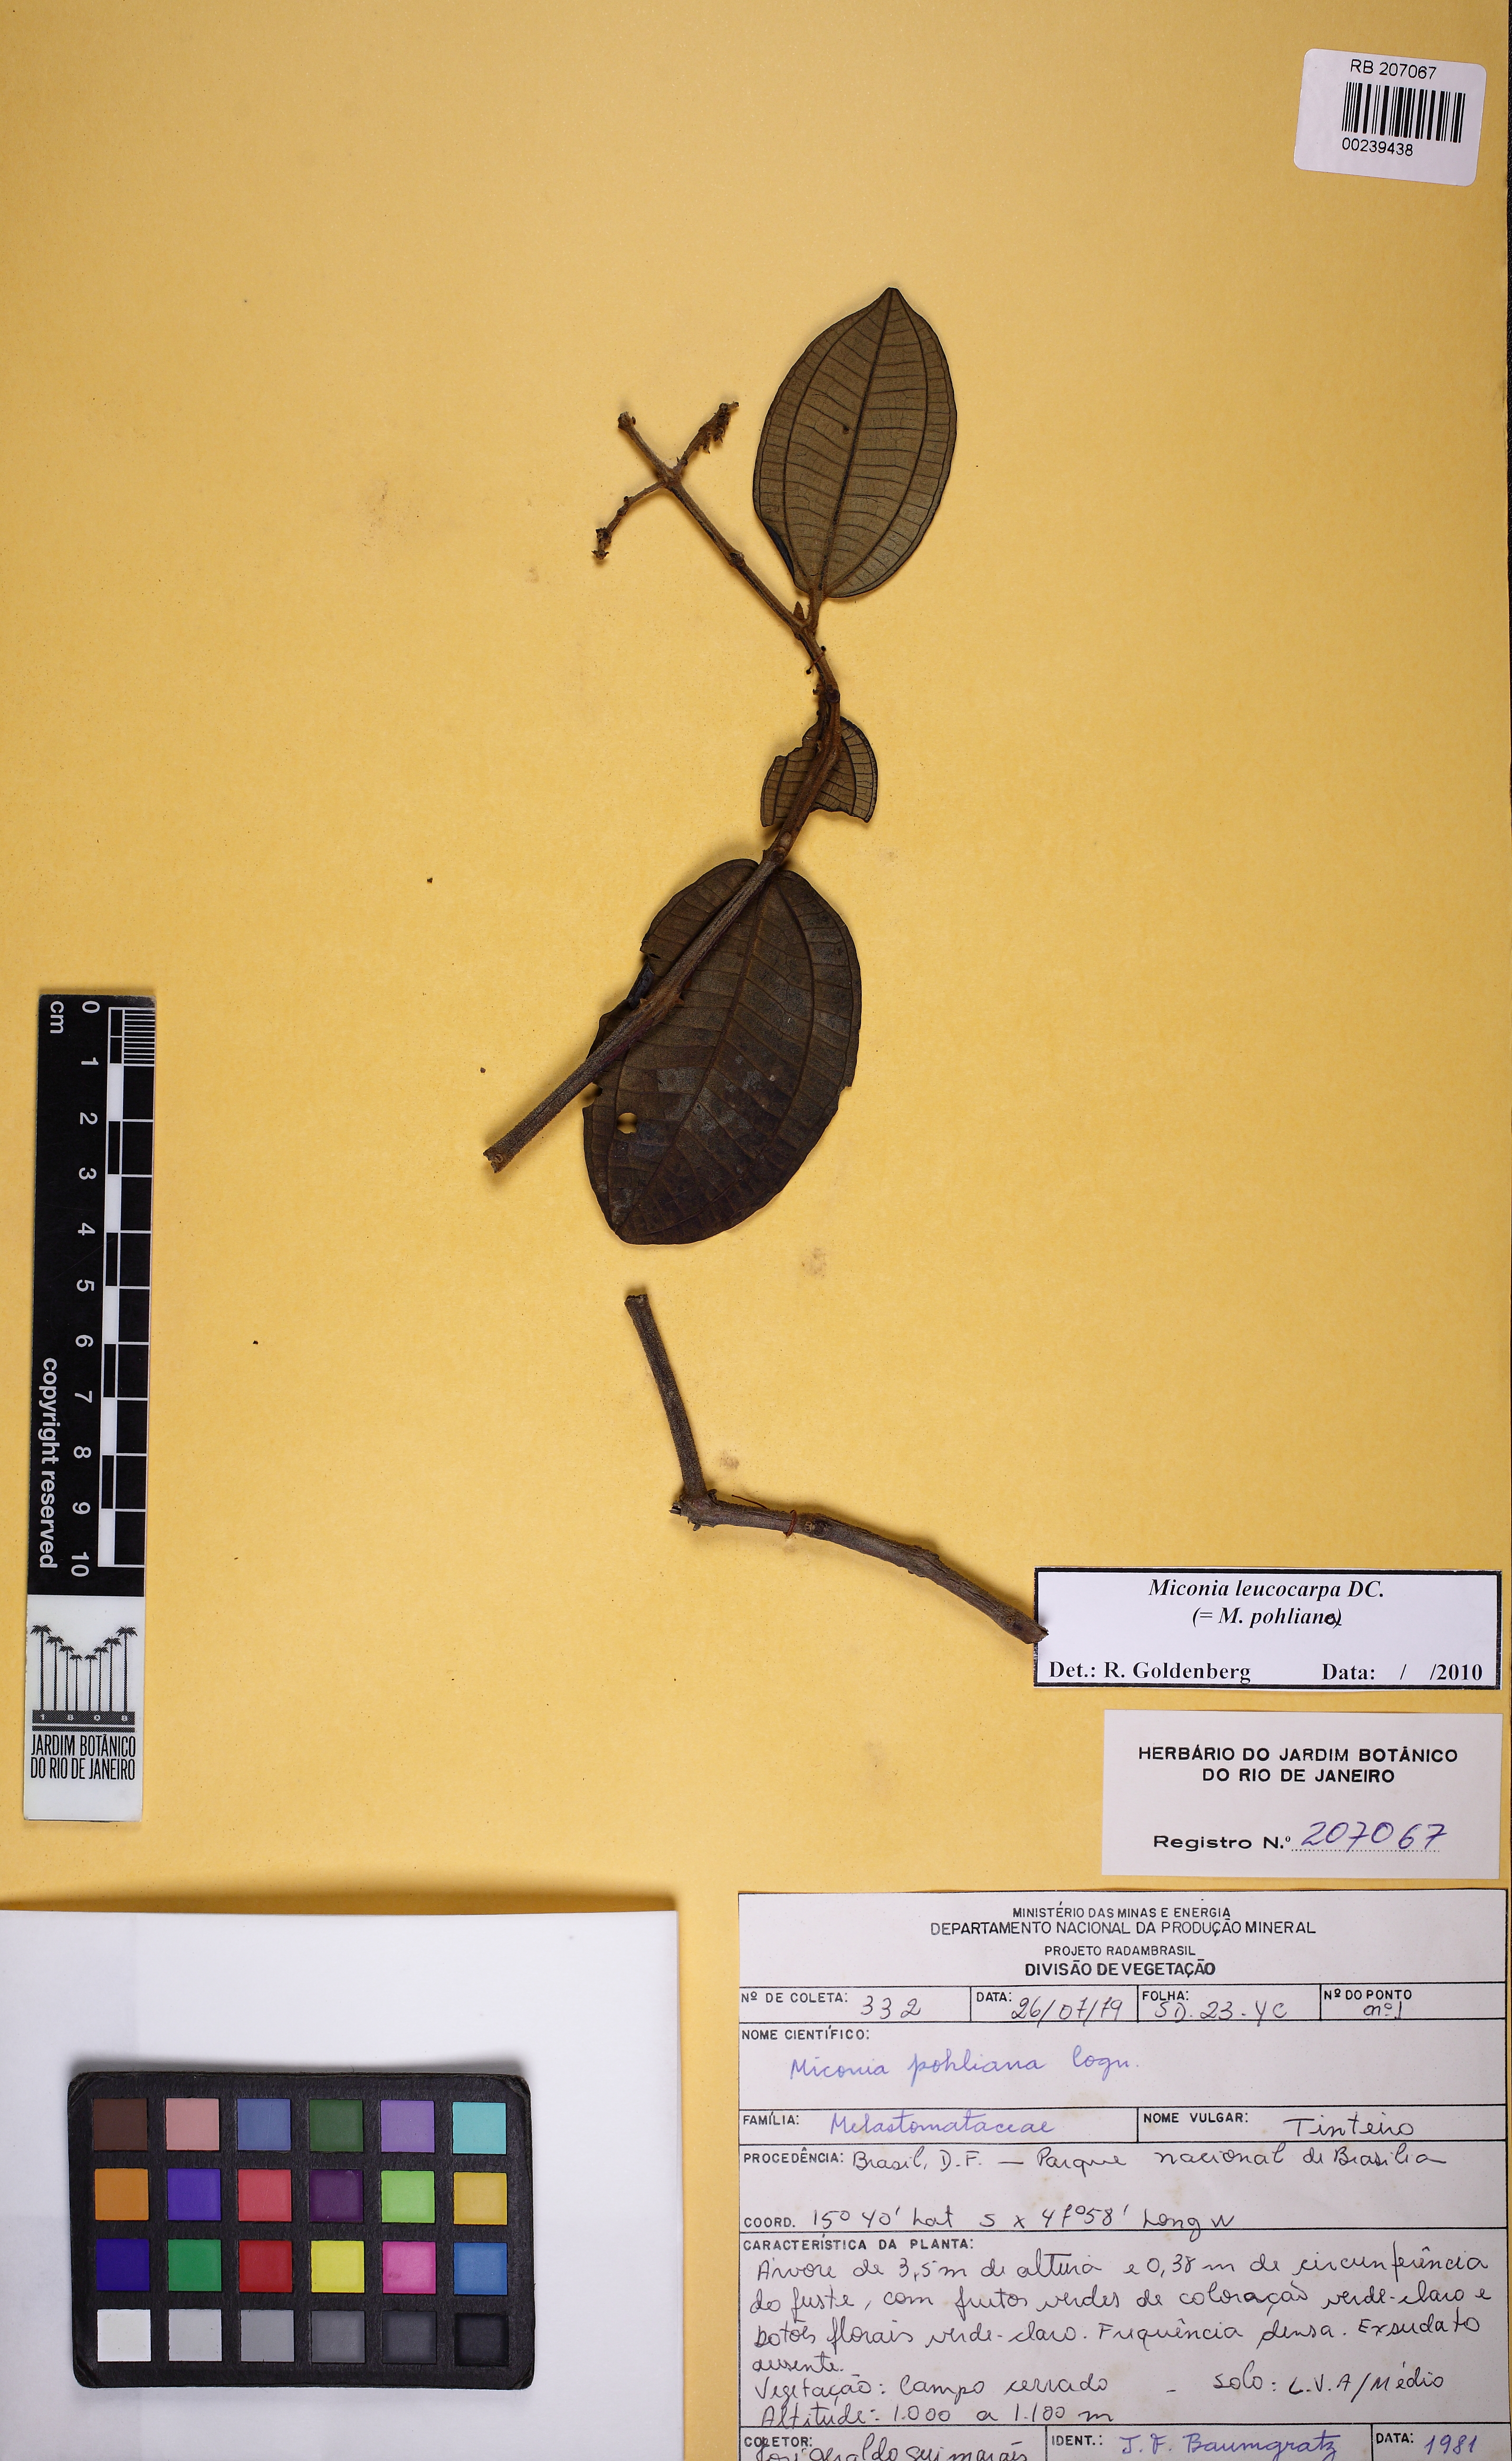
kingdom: Plantae
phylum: Tracheophyta
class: Magnoliopsida
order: Myrtales
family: Melastomataceae
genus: Miconia
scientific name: Miconia leucocarpa
